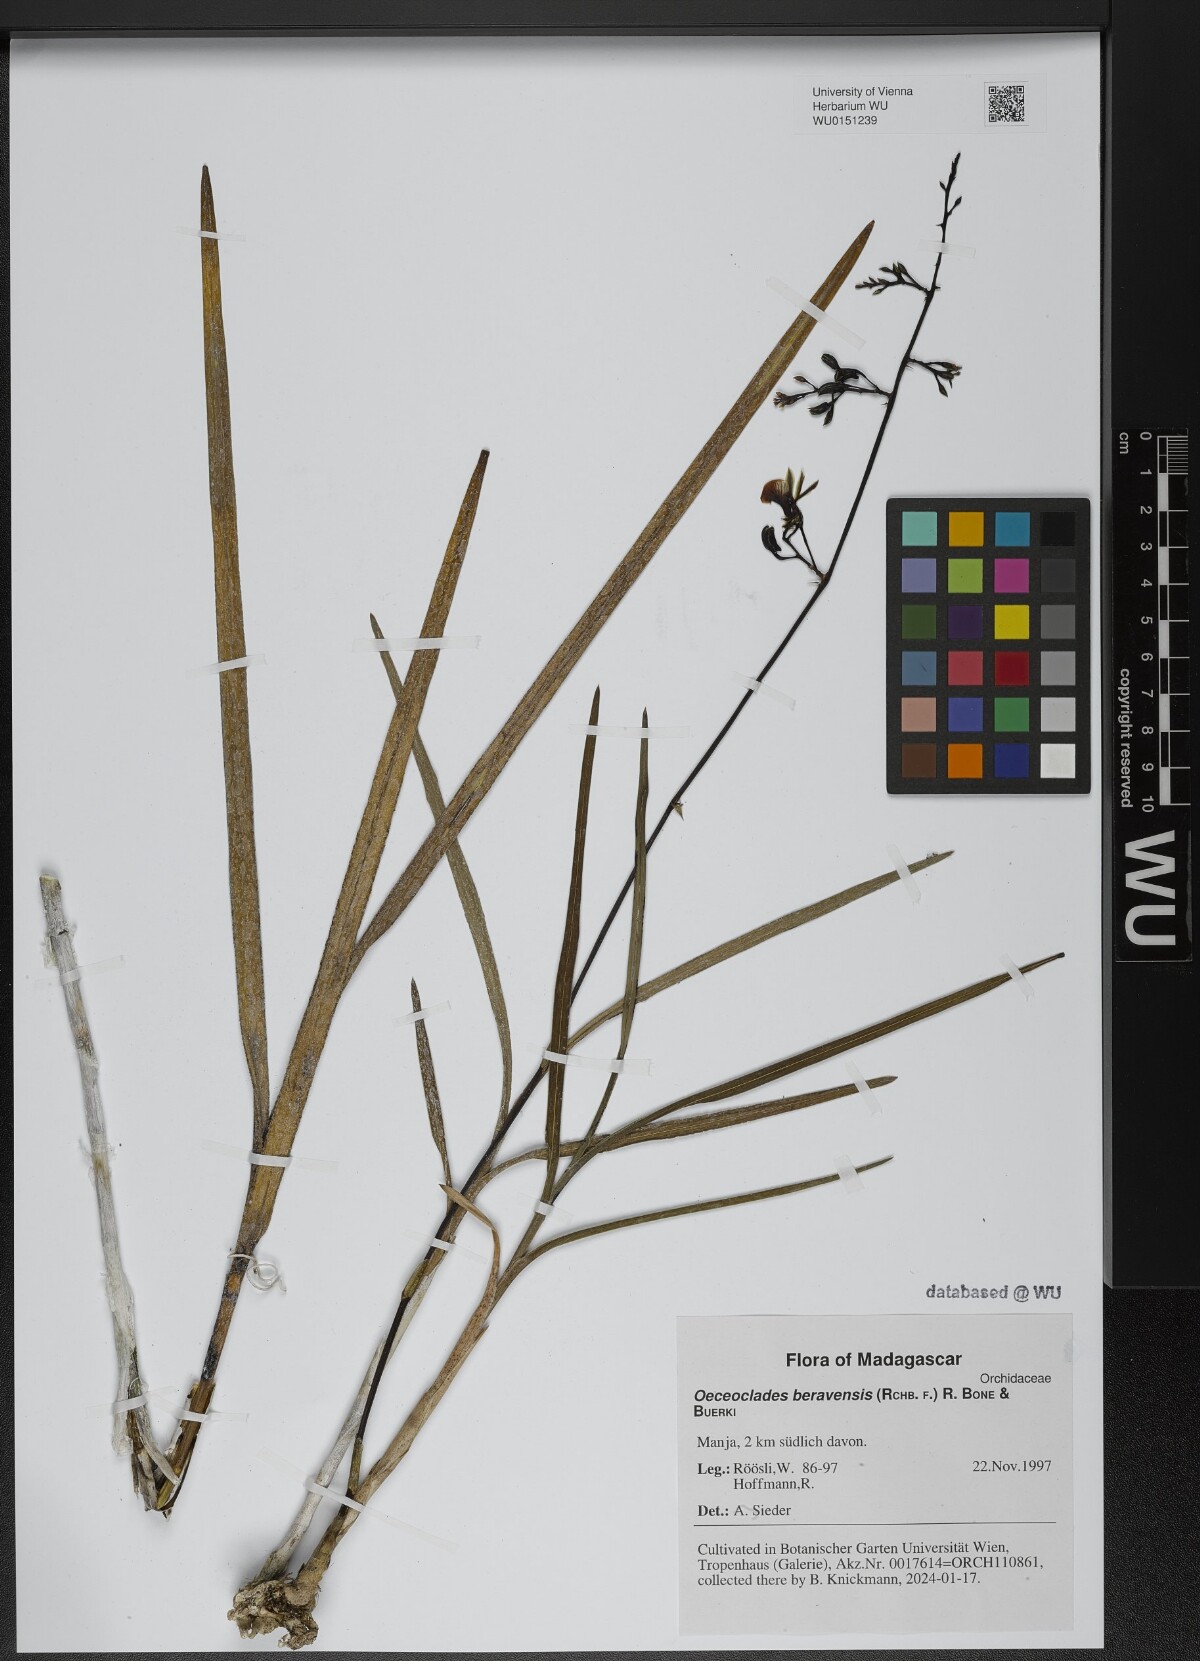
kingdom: Plantae
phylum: Tracheophyta
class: Liliopsida
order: Asparagales
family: Orchidaceae
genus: Eulophia
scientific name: Eulophia beravensis
